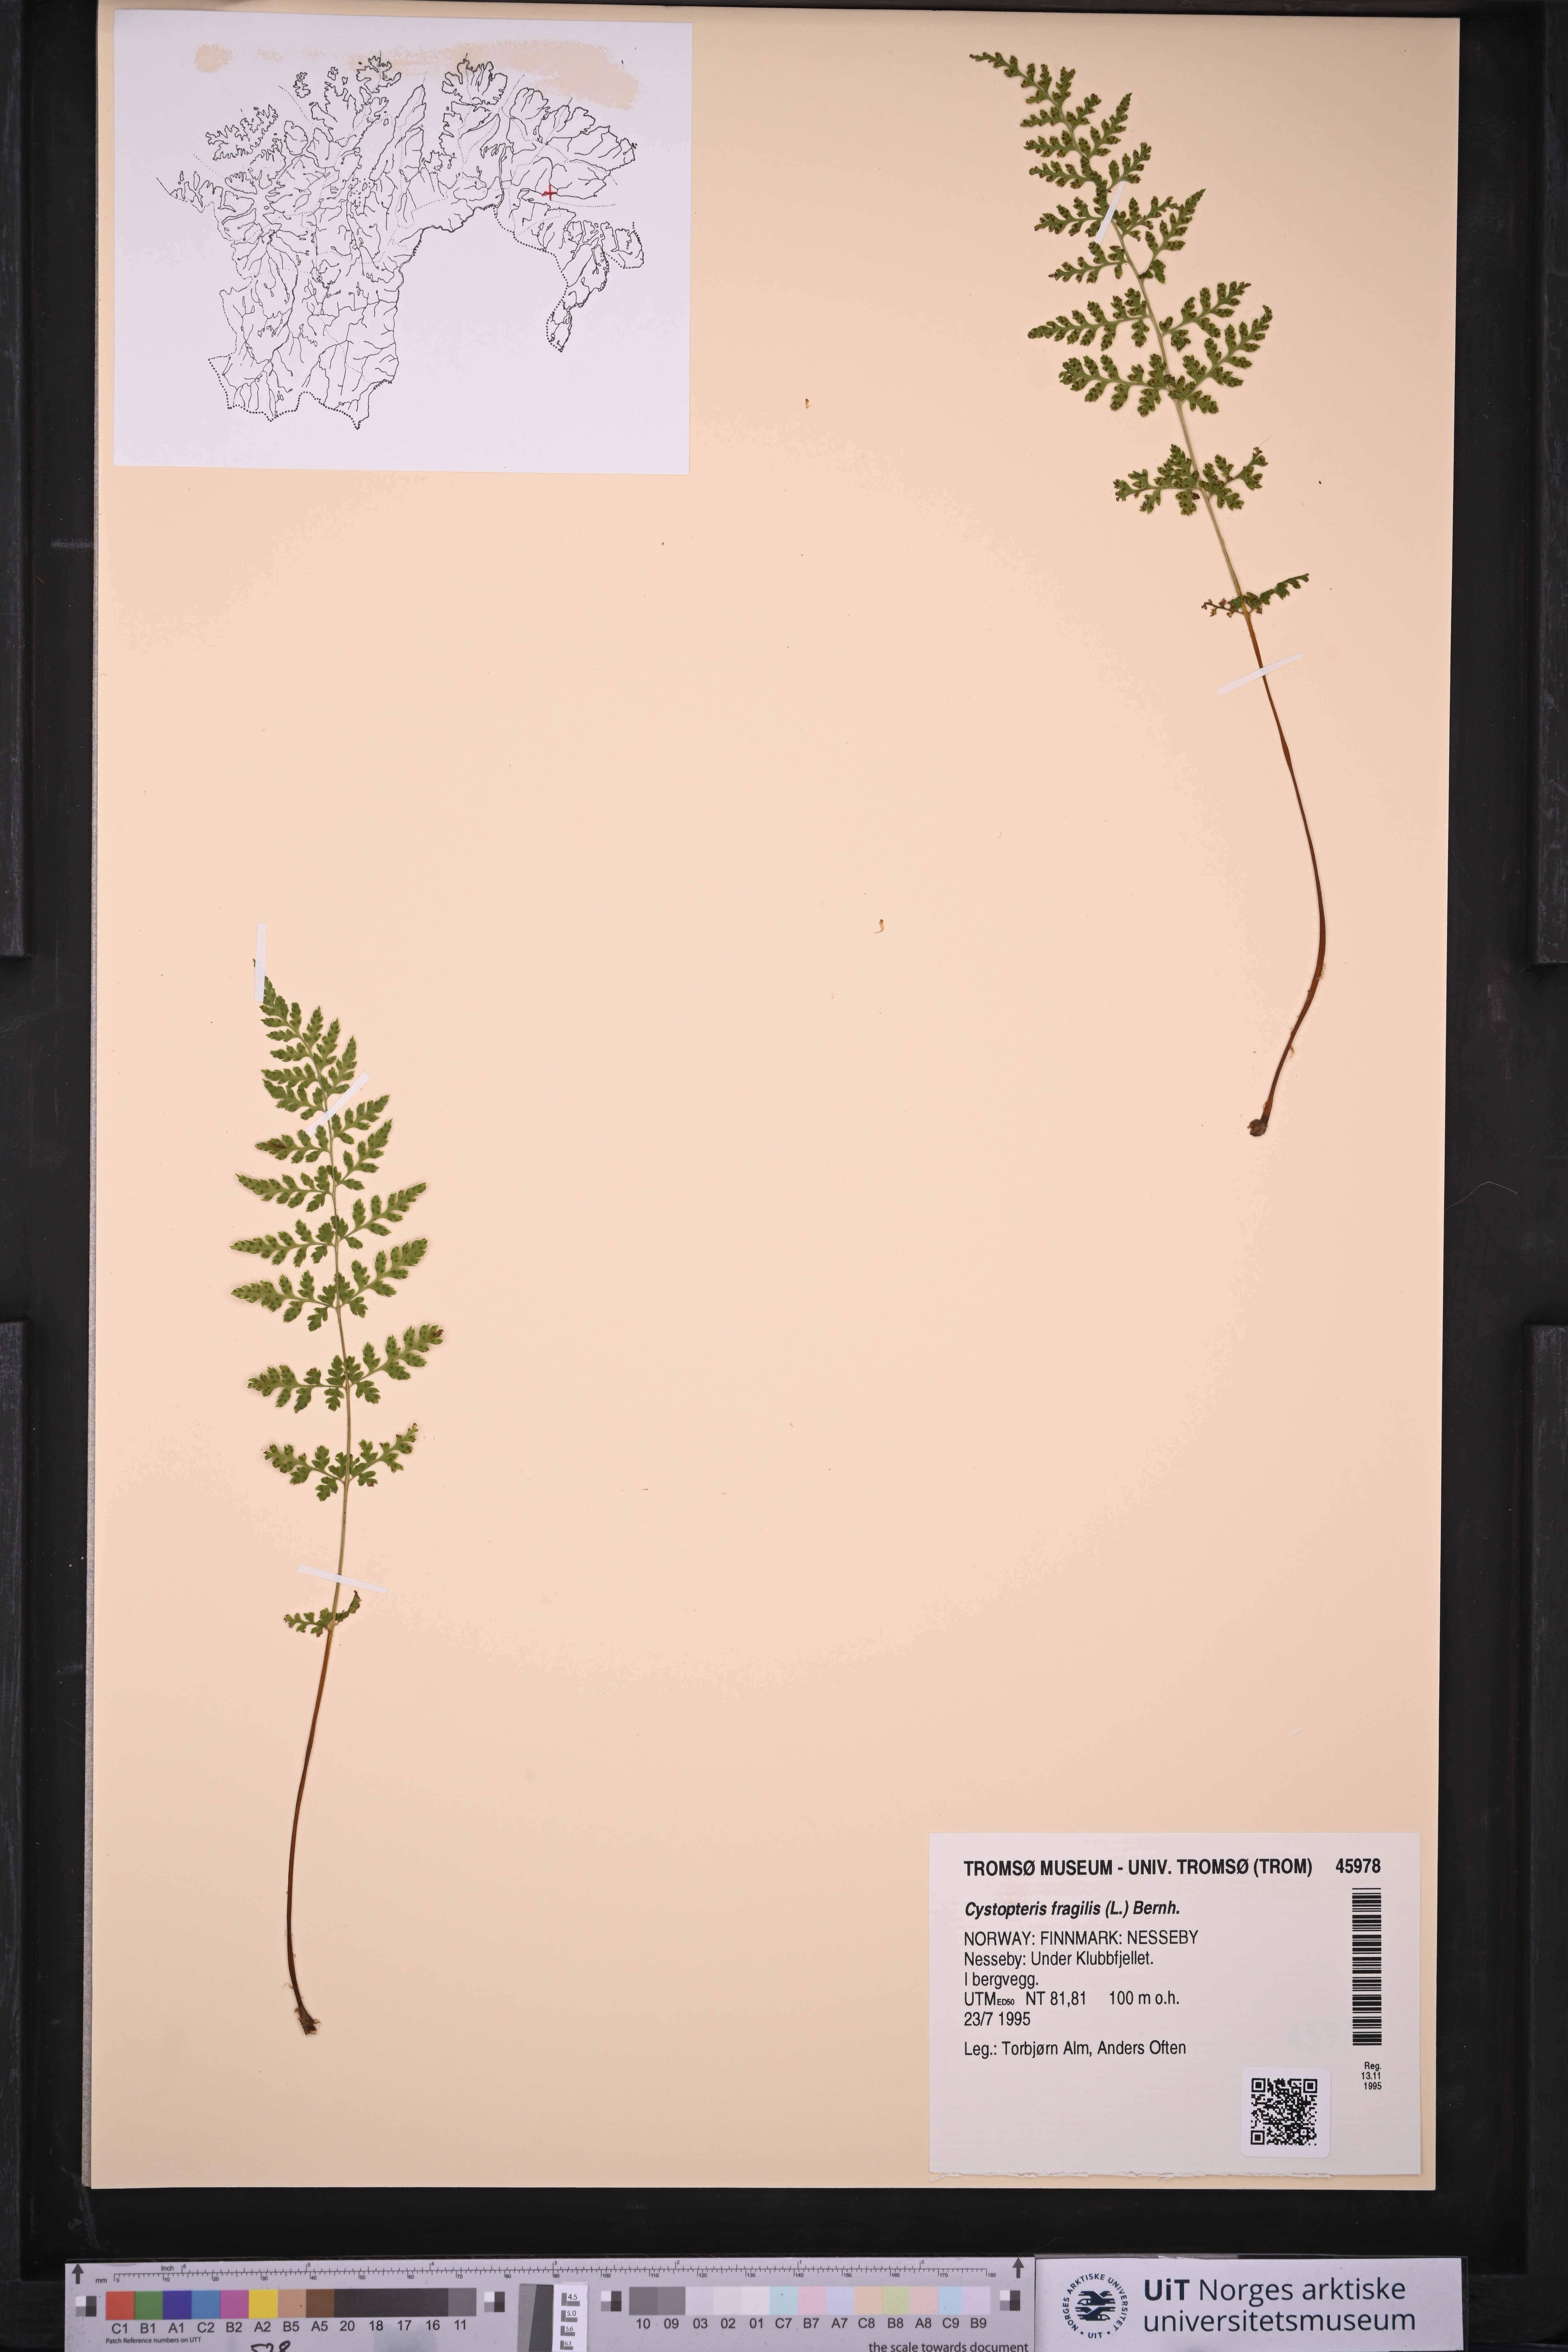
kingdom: Plantae
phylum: Tracheophyta
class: Polypodiopsida
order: Polypodiales
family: Cystopteridaceae
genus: Cystopteris
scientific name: Cystopteris fragilis
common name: Brittle bladder fern
